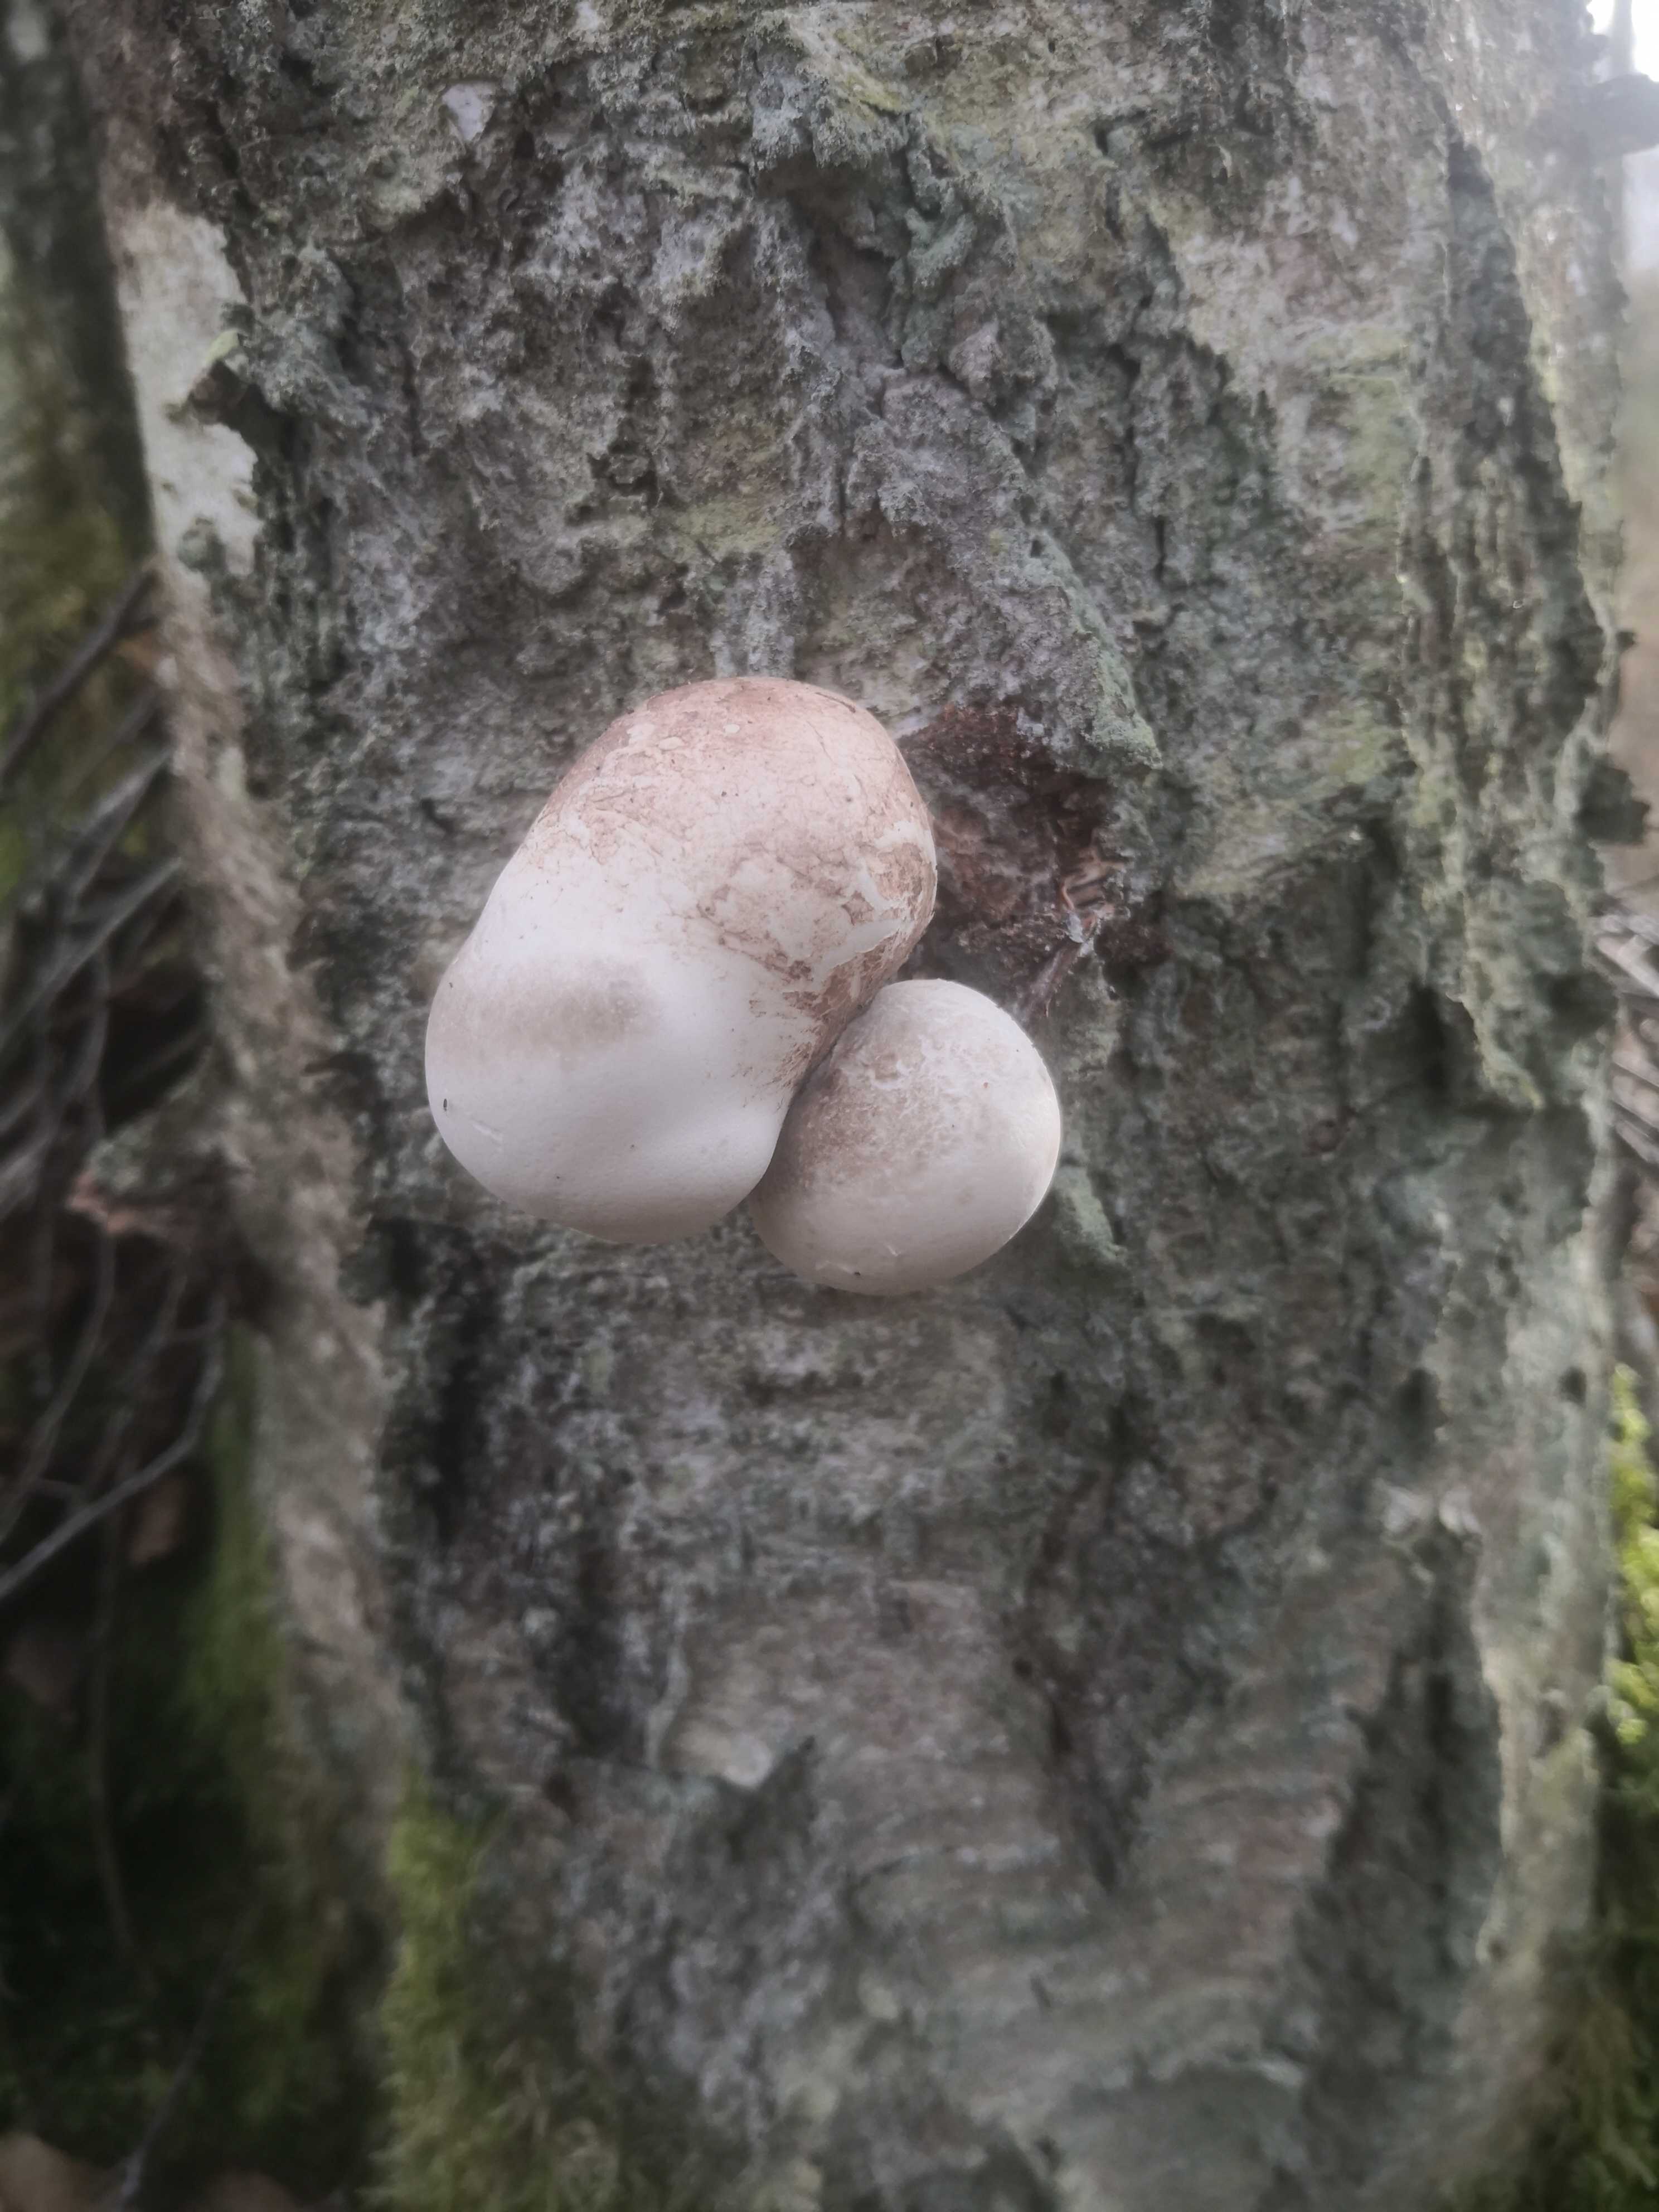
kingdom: Fungi
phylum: Basidiomycota
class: Agaricomycetes
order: Polyporales
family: Fomitopsidaceae
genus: Fomitopsis
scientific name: Fomitopsis betulina
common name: birkeporesvamp
